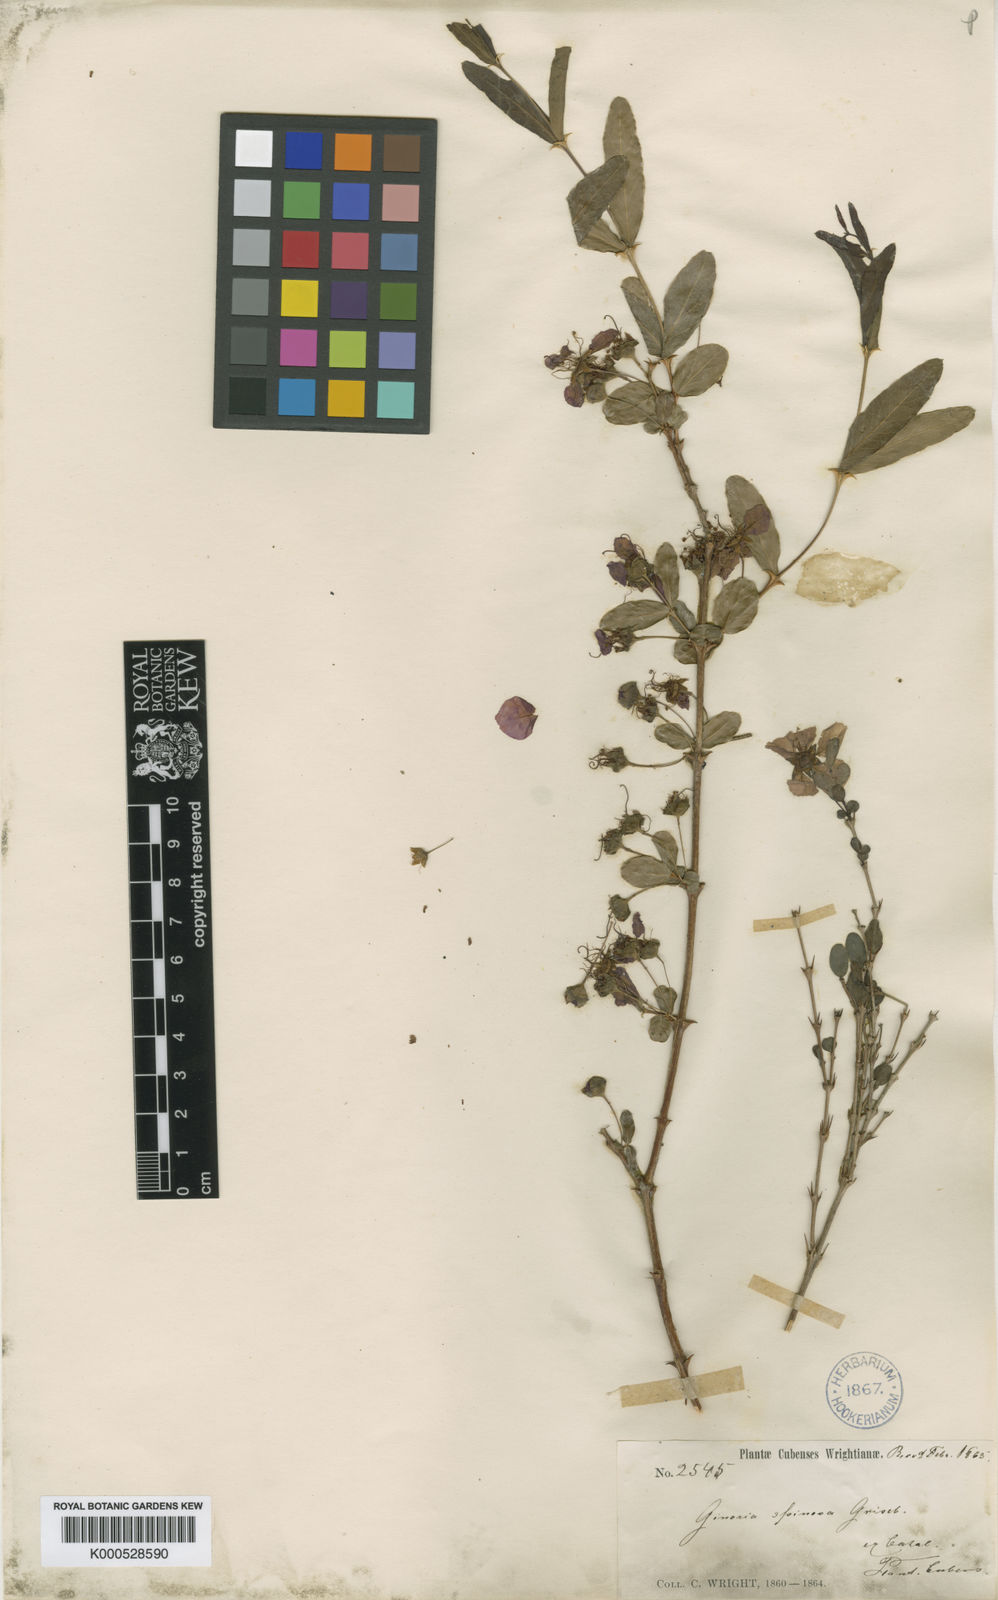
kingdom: Plantae
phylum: Tracheophyta
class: Magnoliopsida
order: Myrtales
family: Lythraceae
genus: Ginoria
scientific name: Ginoria americana
